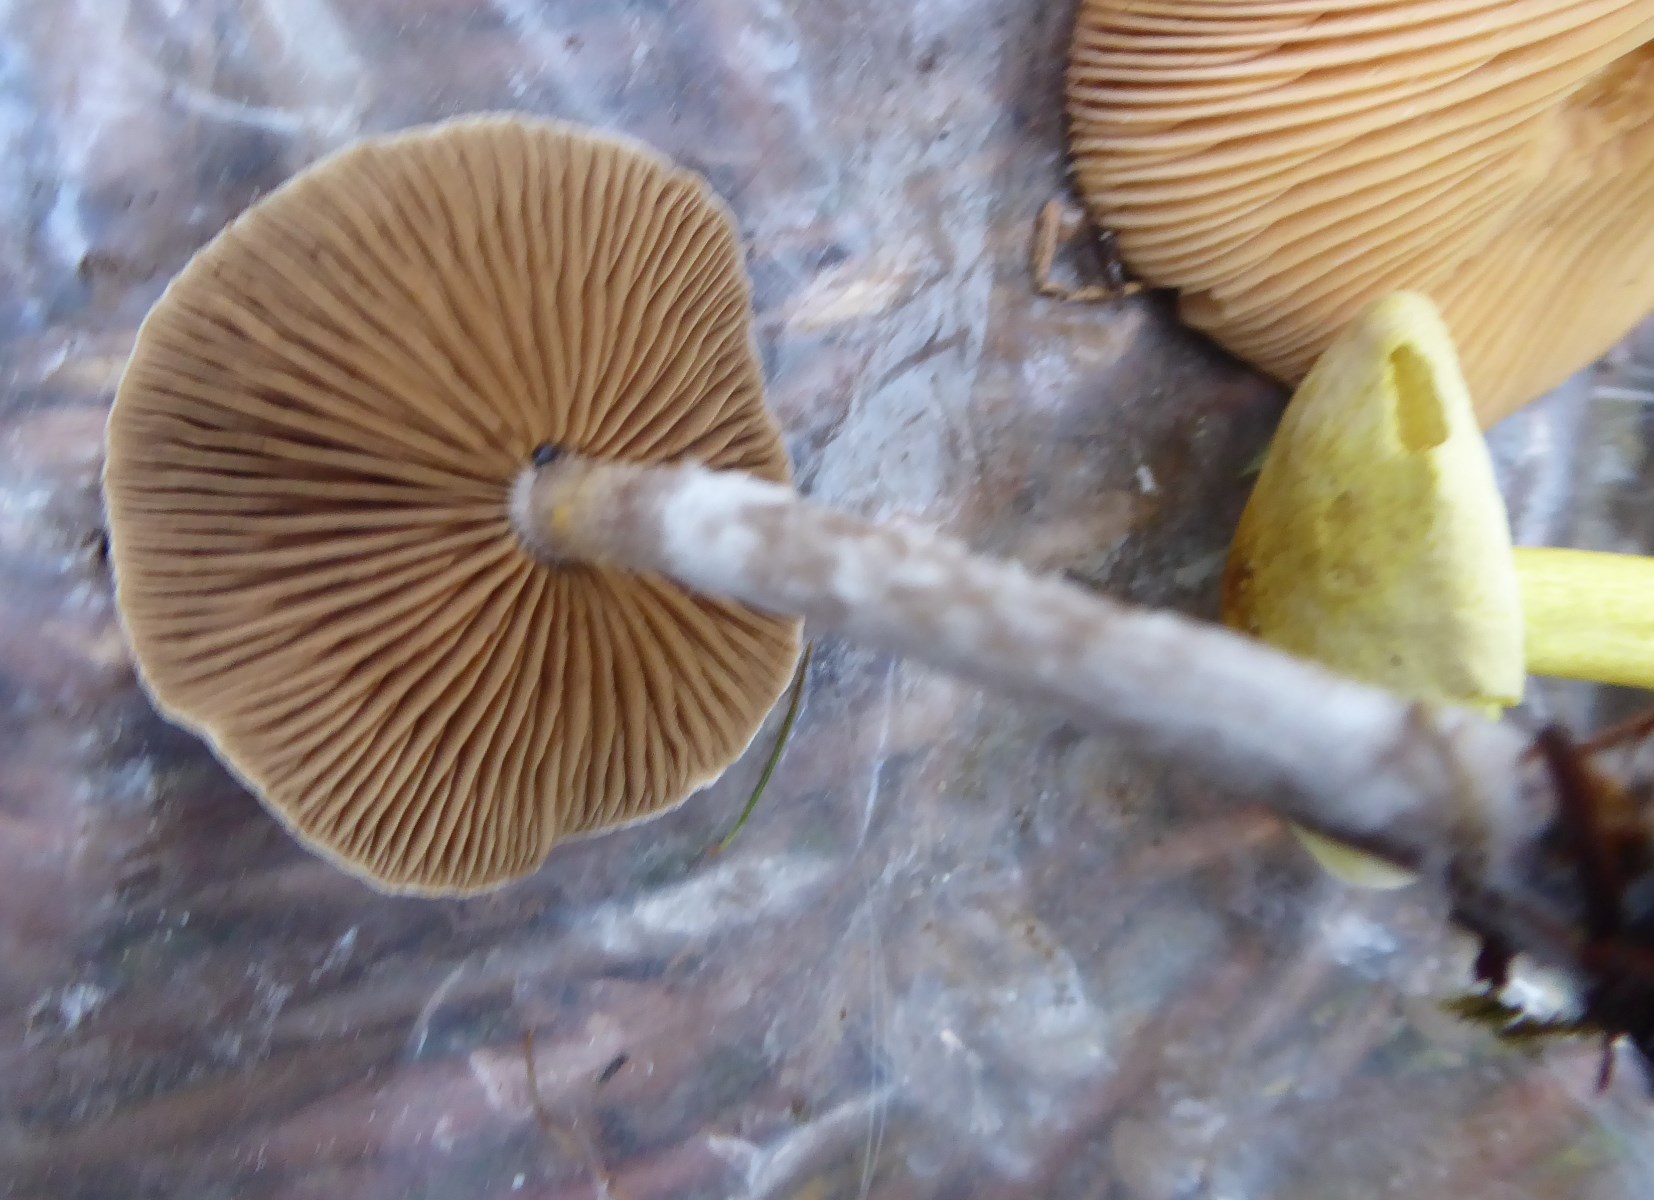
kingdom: Fungi
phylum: Basidiomycota
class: Agaricomycetes
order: Agaricales
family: Cortinariaceae
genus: Cortinarius
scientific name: Cortinarius hemitrichus
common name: hvidfnugget slørhat
